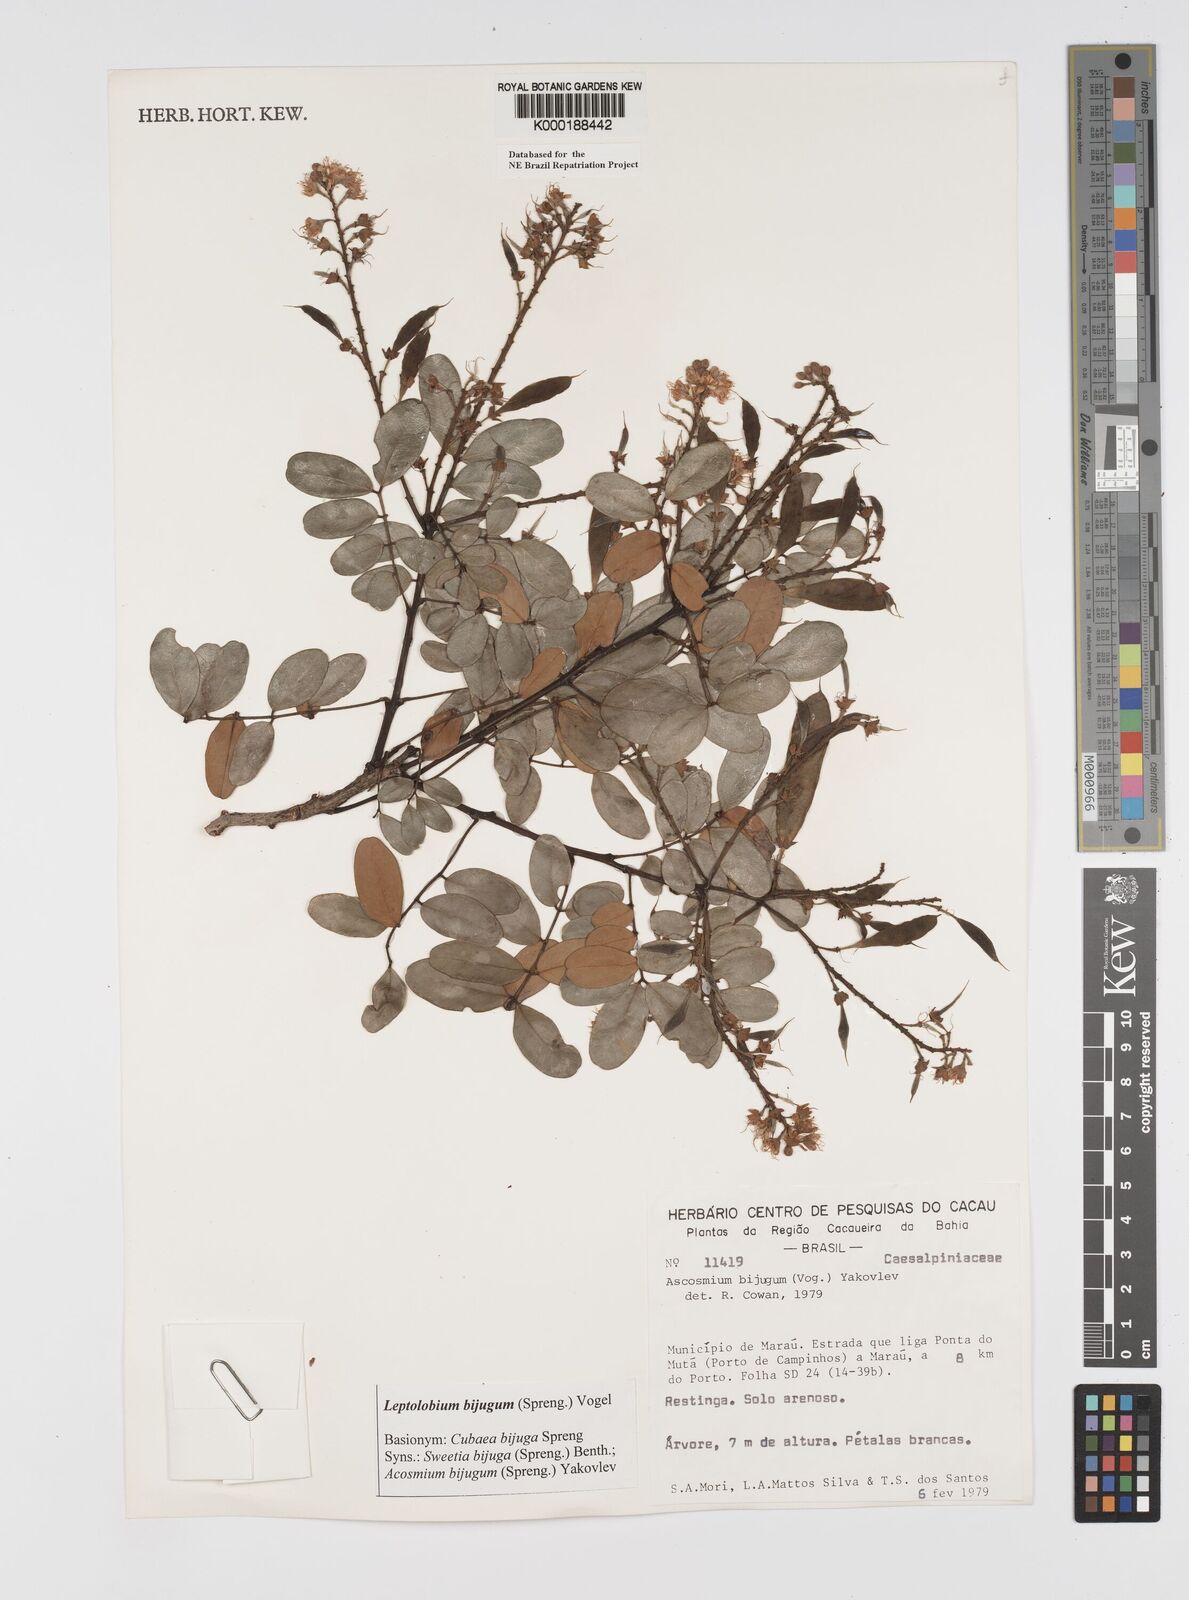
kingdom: Plantae
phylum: Tracheophyta
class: Magnoliopsida
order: Fabales
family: Fabaceae
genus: Leptolobium
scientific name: Leptolobium bijugum
